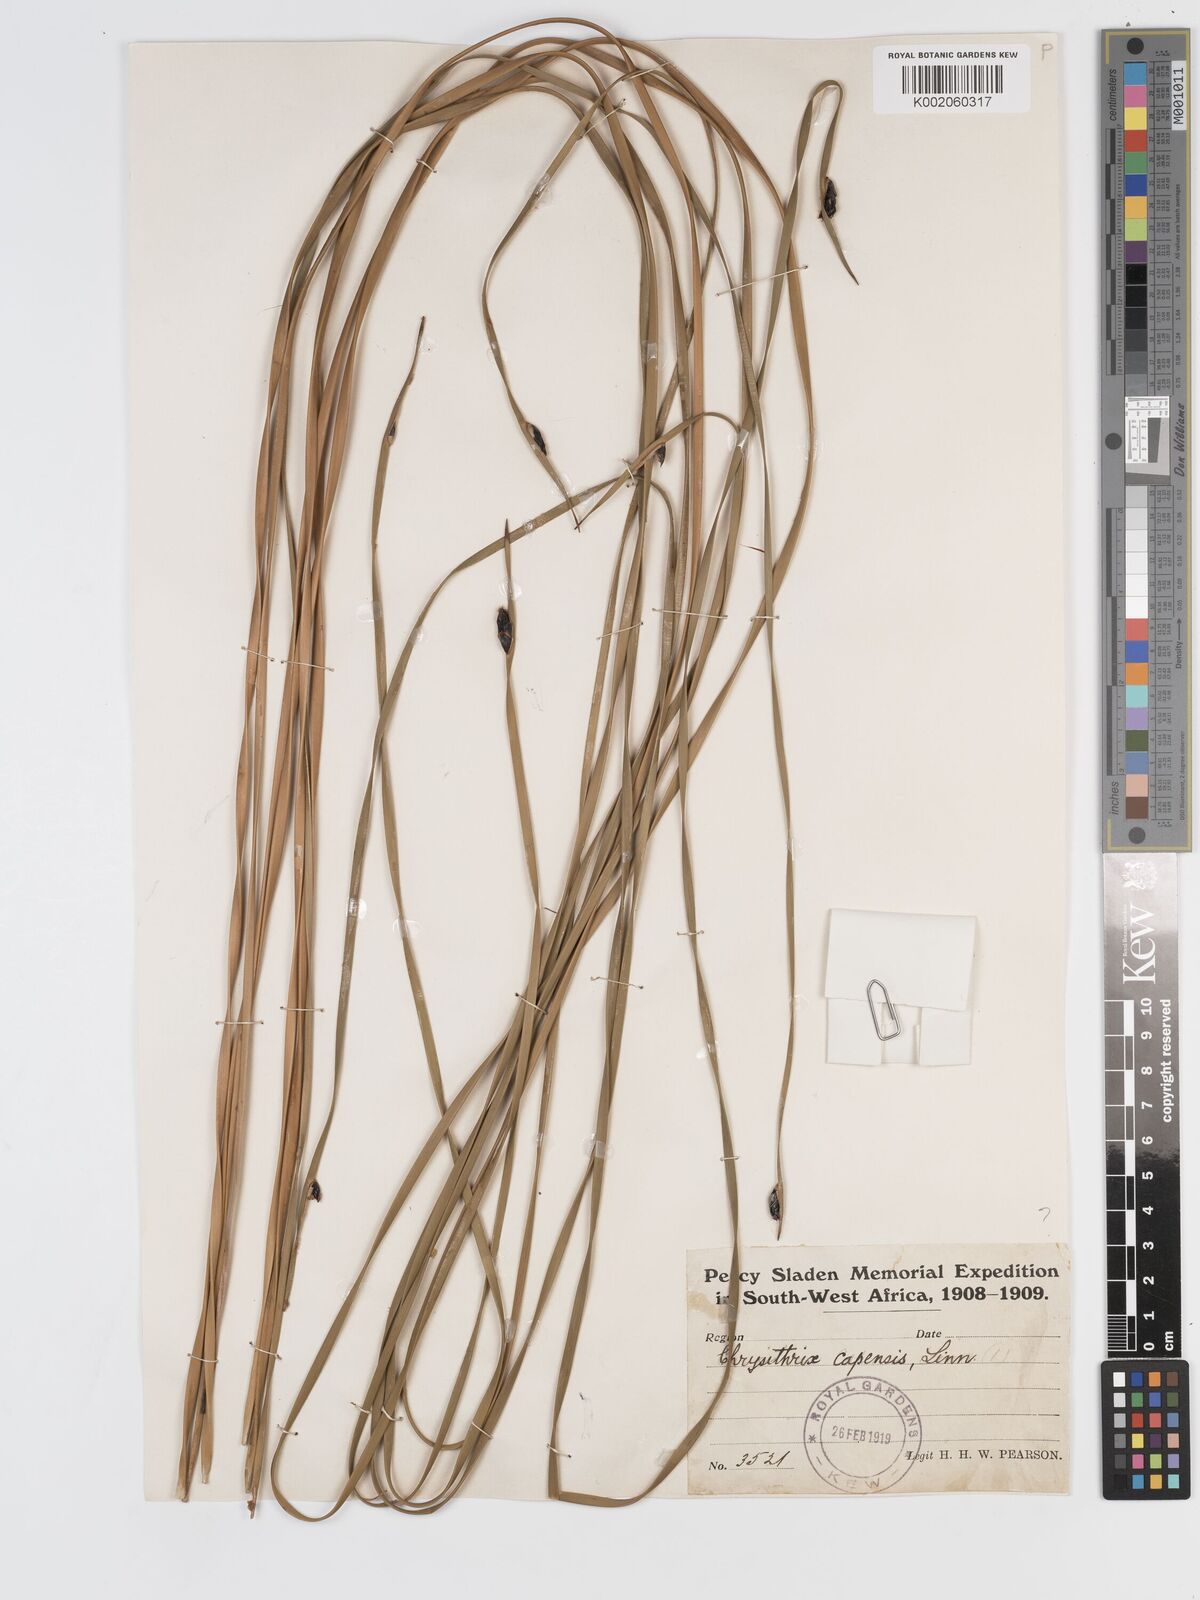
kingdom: Plantae
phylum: Tracheophyta
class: Liliopsida
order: Poales
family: Cyperaceae
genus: Chrysitrix
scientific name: Chrysitrix capensis
